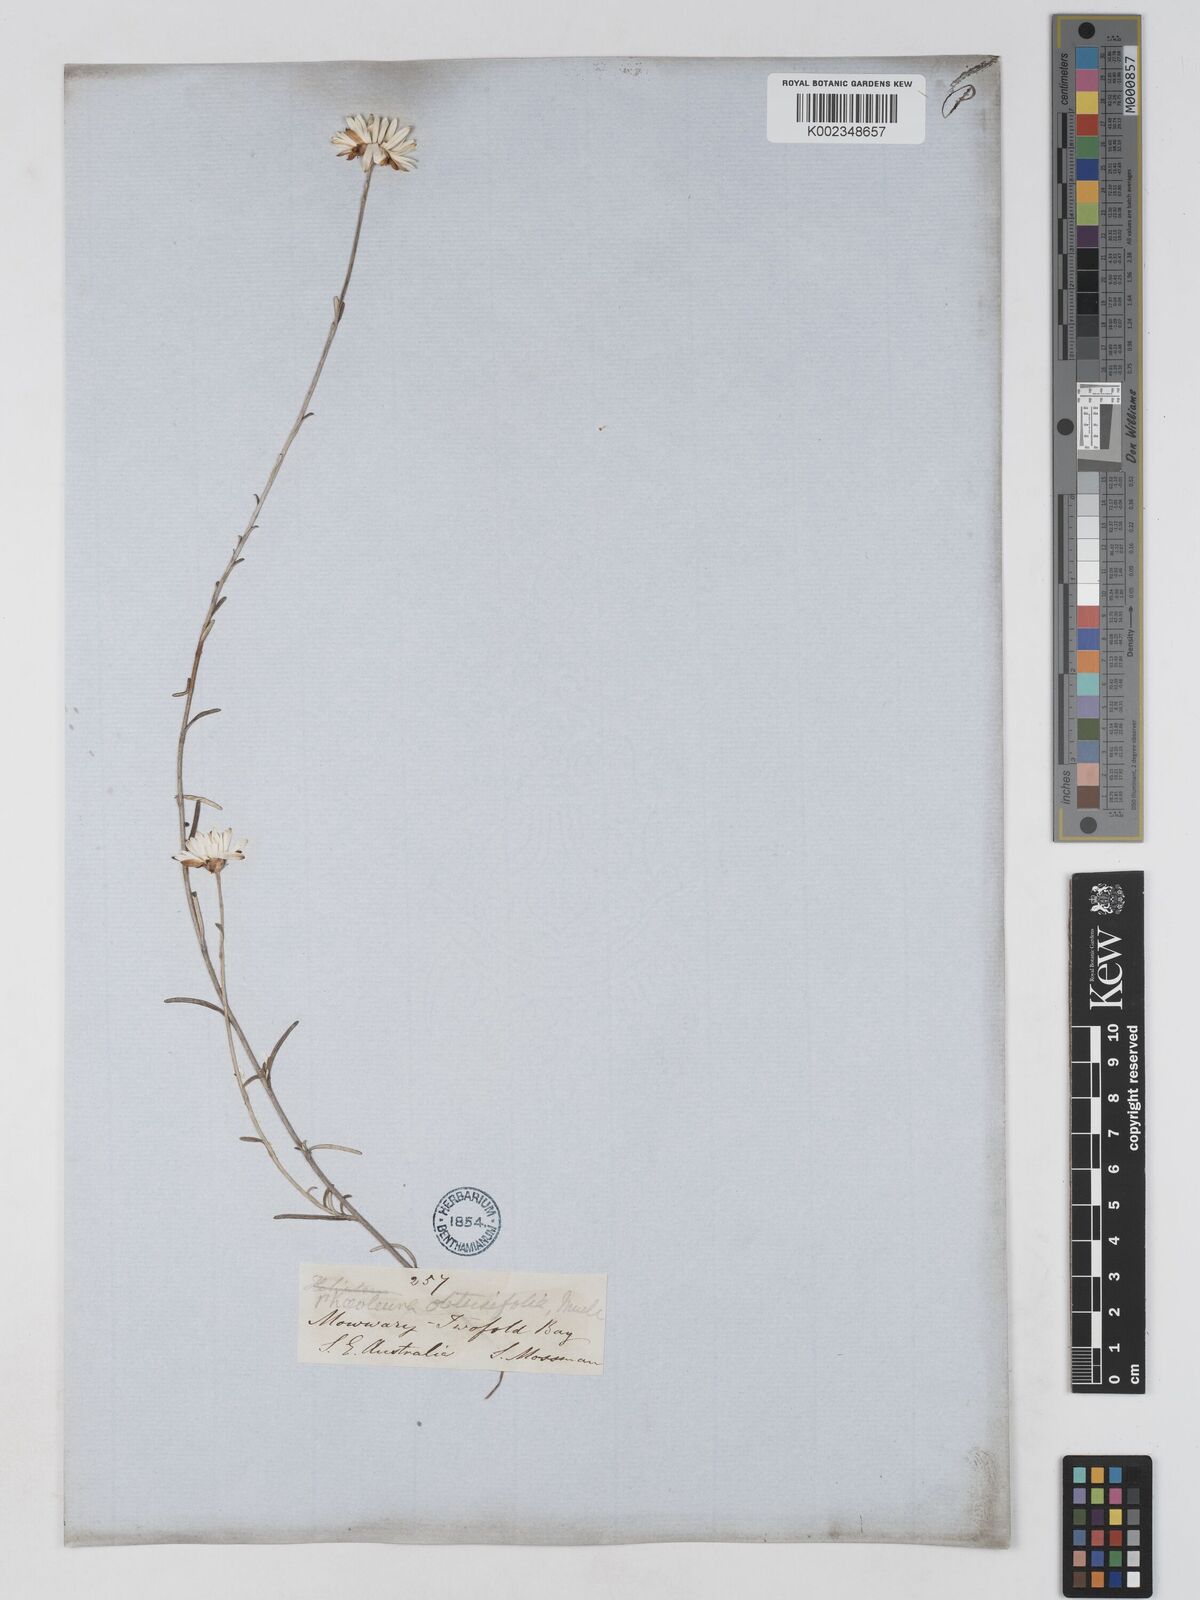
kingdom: Plantae
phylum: Tracheophyta
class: Magnoliopsida
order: Asterales
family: Asteraceae
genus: Argentipallium
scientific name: Argentipallium obtusifolium
